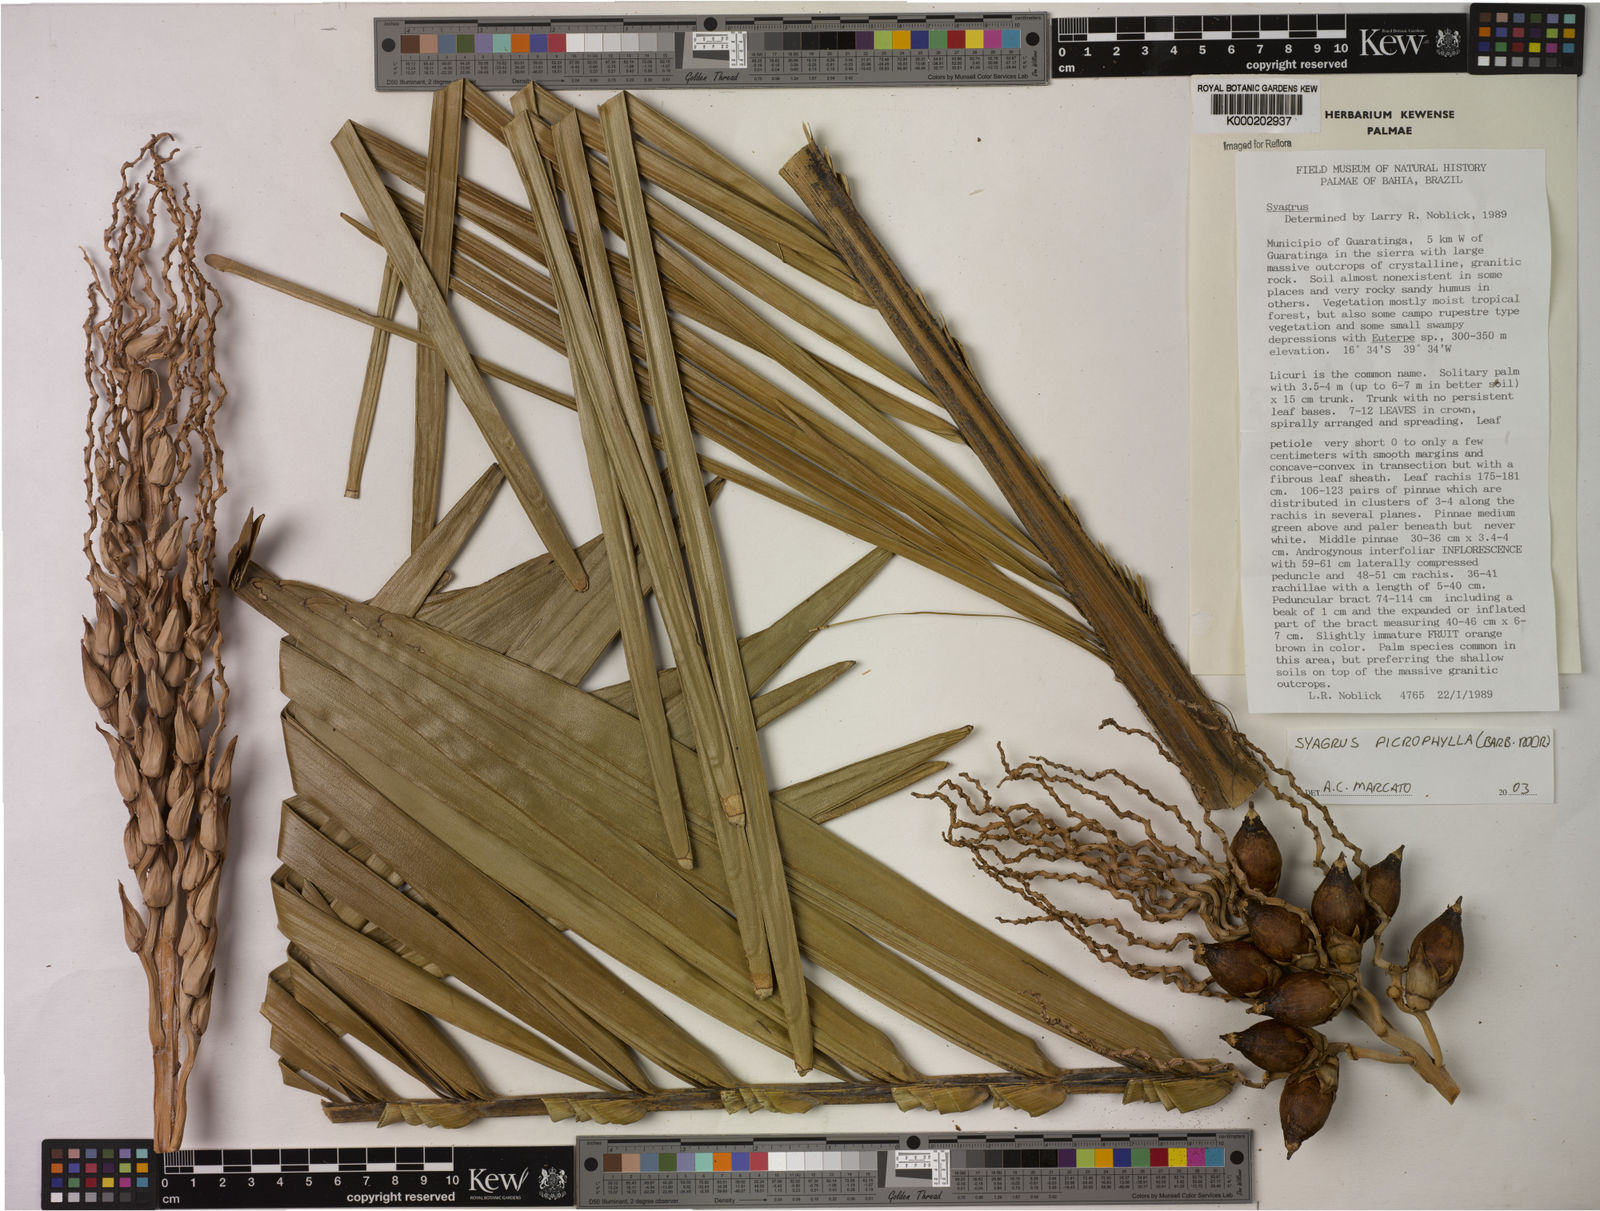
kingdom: Plantae
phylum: Tracheophyta
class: Liliopsida
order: Arecales
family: Arecaceae
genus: Syagrus
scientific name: Syagrus picrophylla
